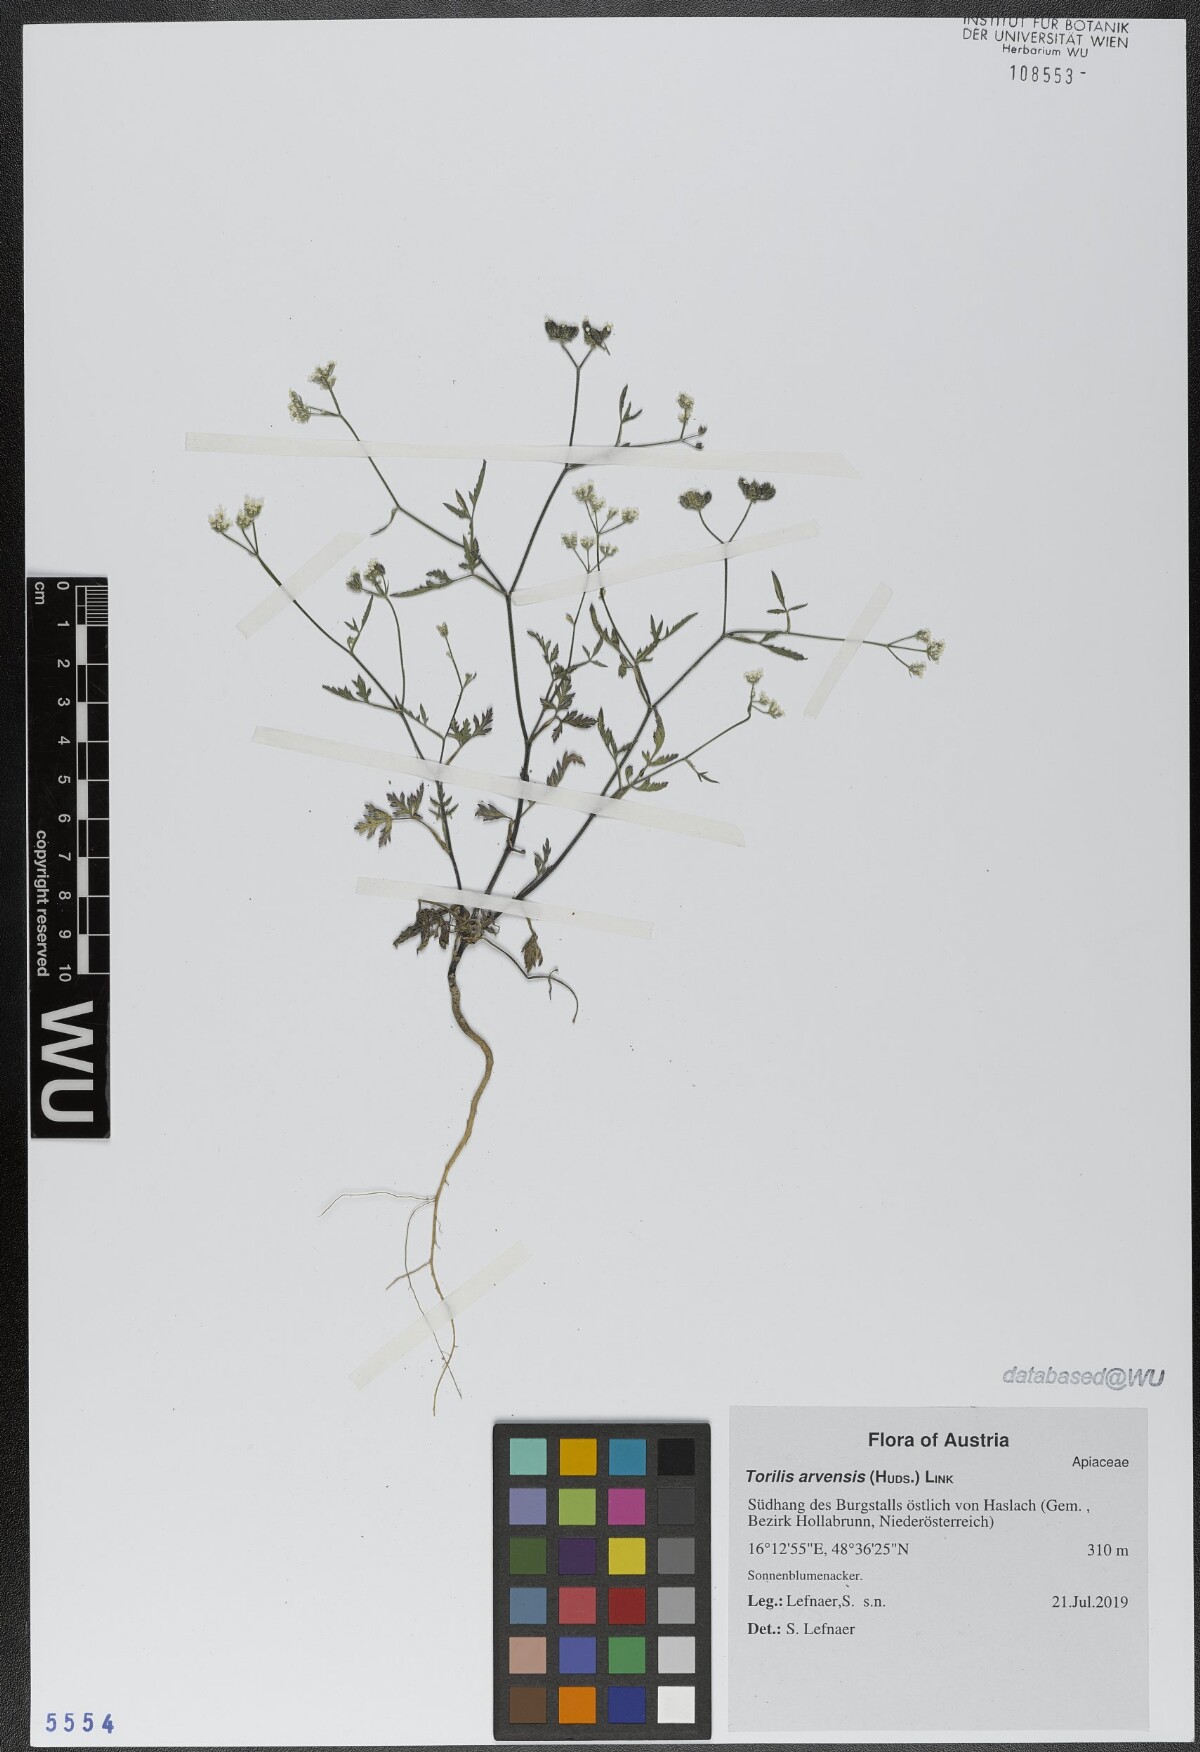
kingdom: Plantae
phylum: Tracheophyta
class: Magnoliopsida
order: Apiales
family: Apiaceae
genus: Torilis
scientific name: Torilis arvensis
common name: Spreading hedge-parsley
